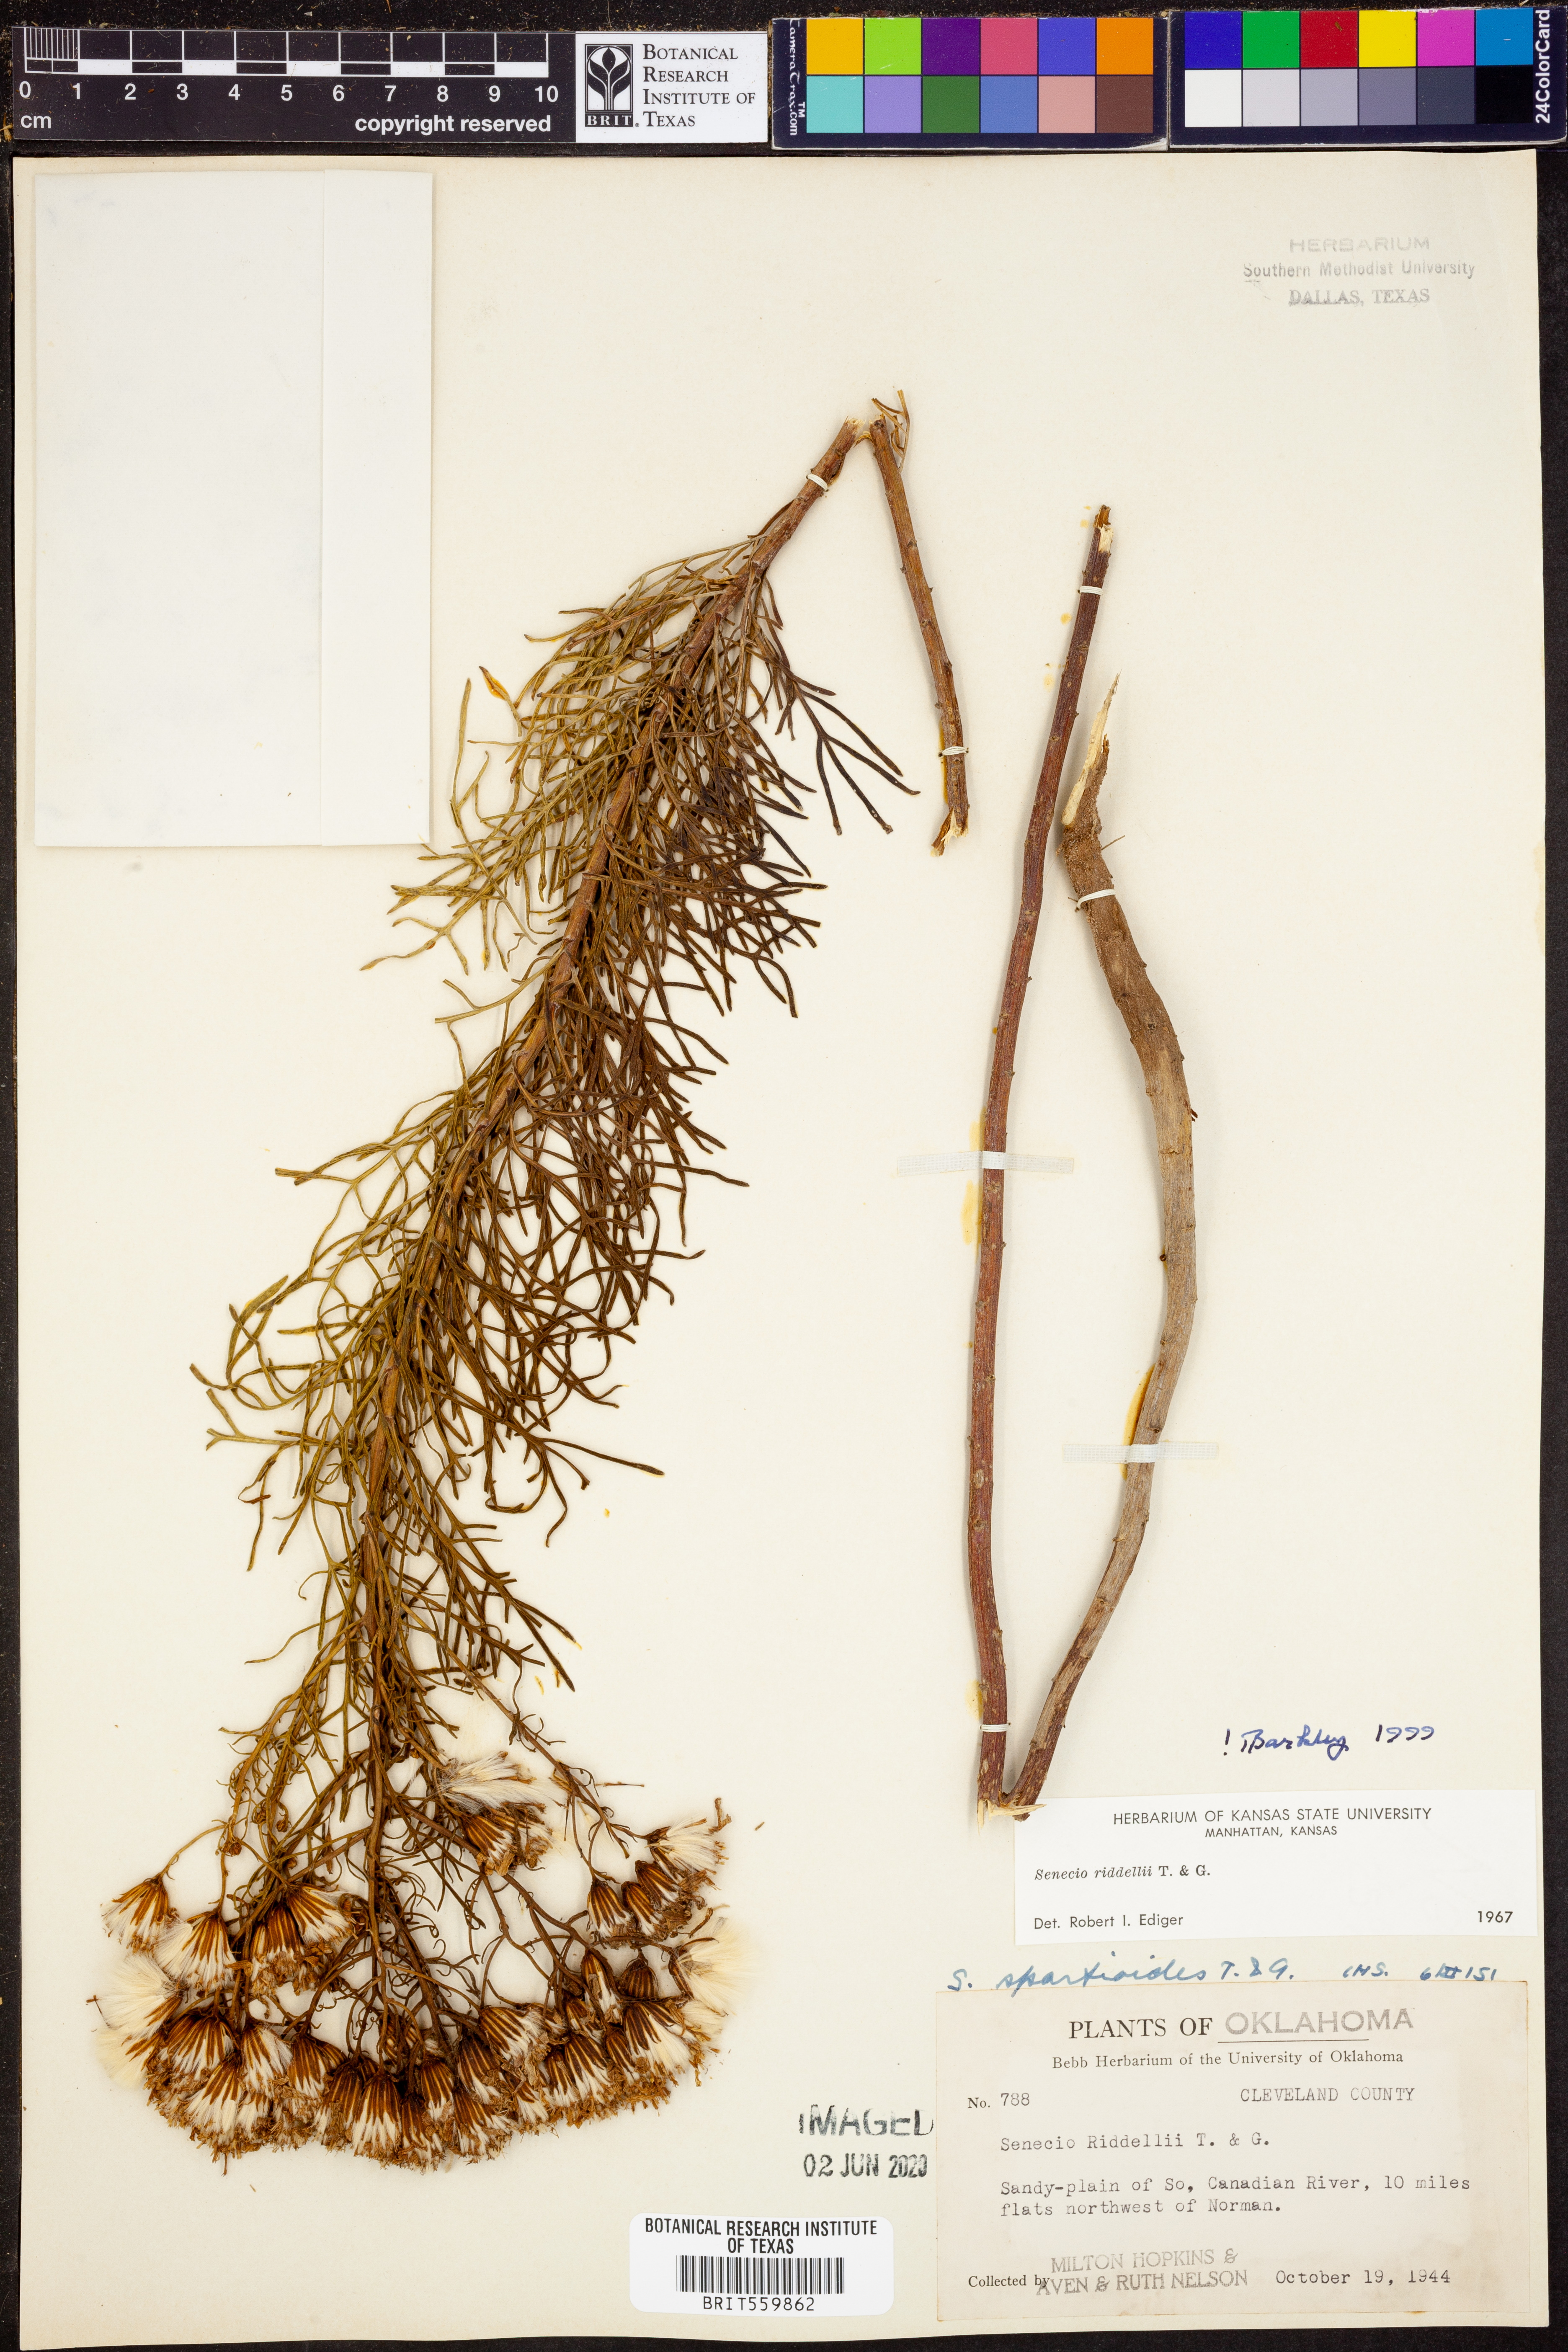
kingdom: Plantae
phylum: Tracheophyta
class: Magnoliopsida
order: Asterales
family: Asteraceae
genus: Senecio
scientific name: Senecio riddellii
